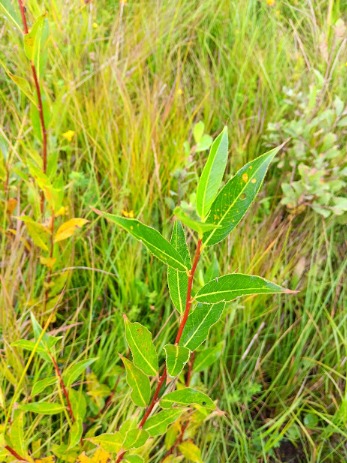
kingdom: Plantae
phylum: Tracheophyta
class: Magnoliopsida
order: Malpighiales
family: Salicaceae
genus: Salix
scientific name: Salix meyeriana
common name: Glans-pil
